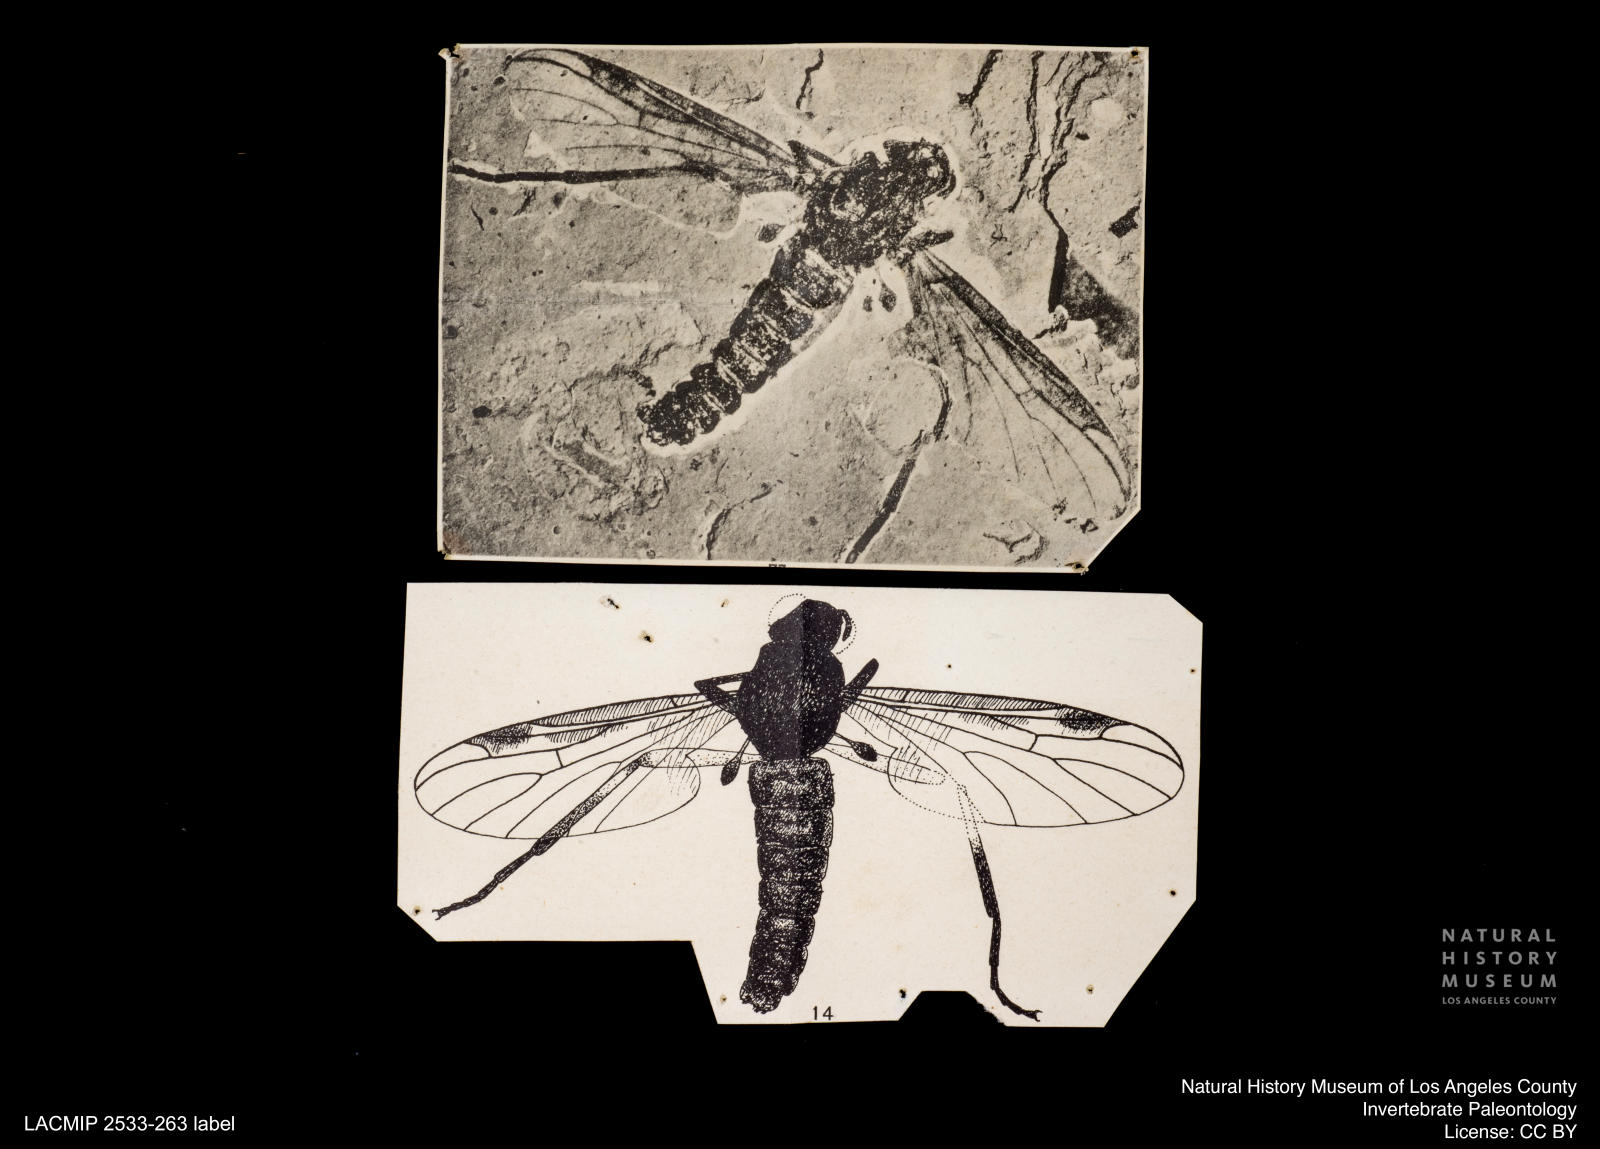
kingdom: Animalia
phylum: Arthropoda
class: Insecta
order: Diptera
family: Bibionidae
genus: Plecia
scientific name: Plecia
